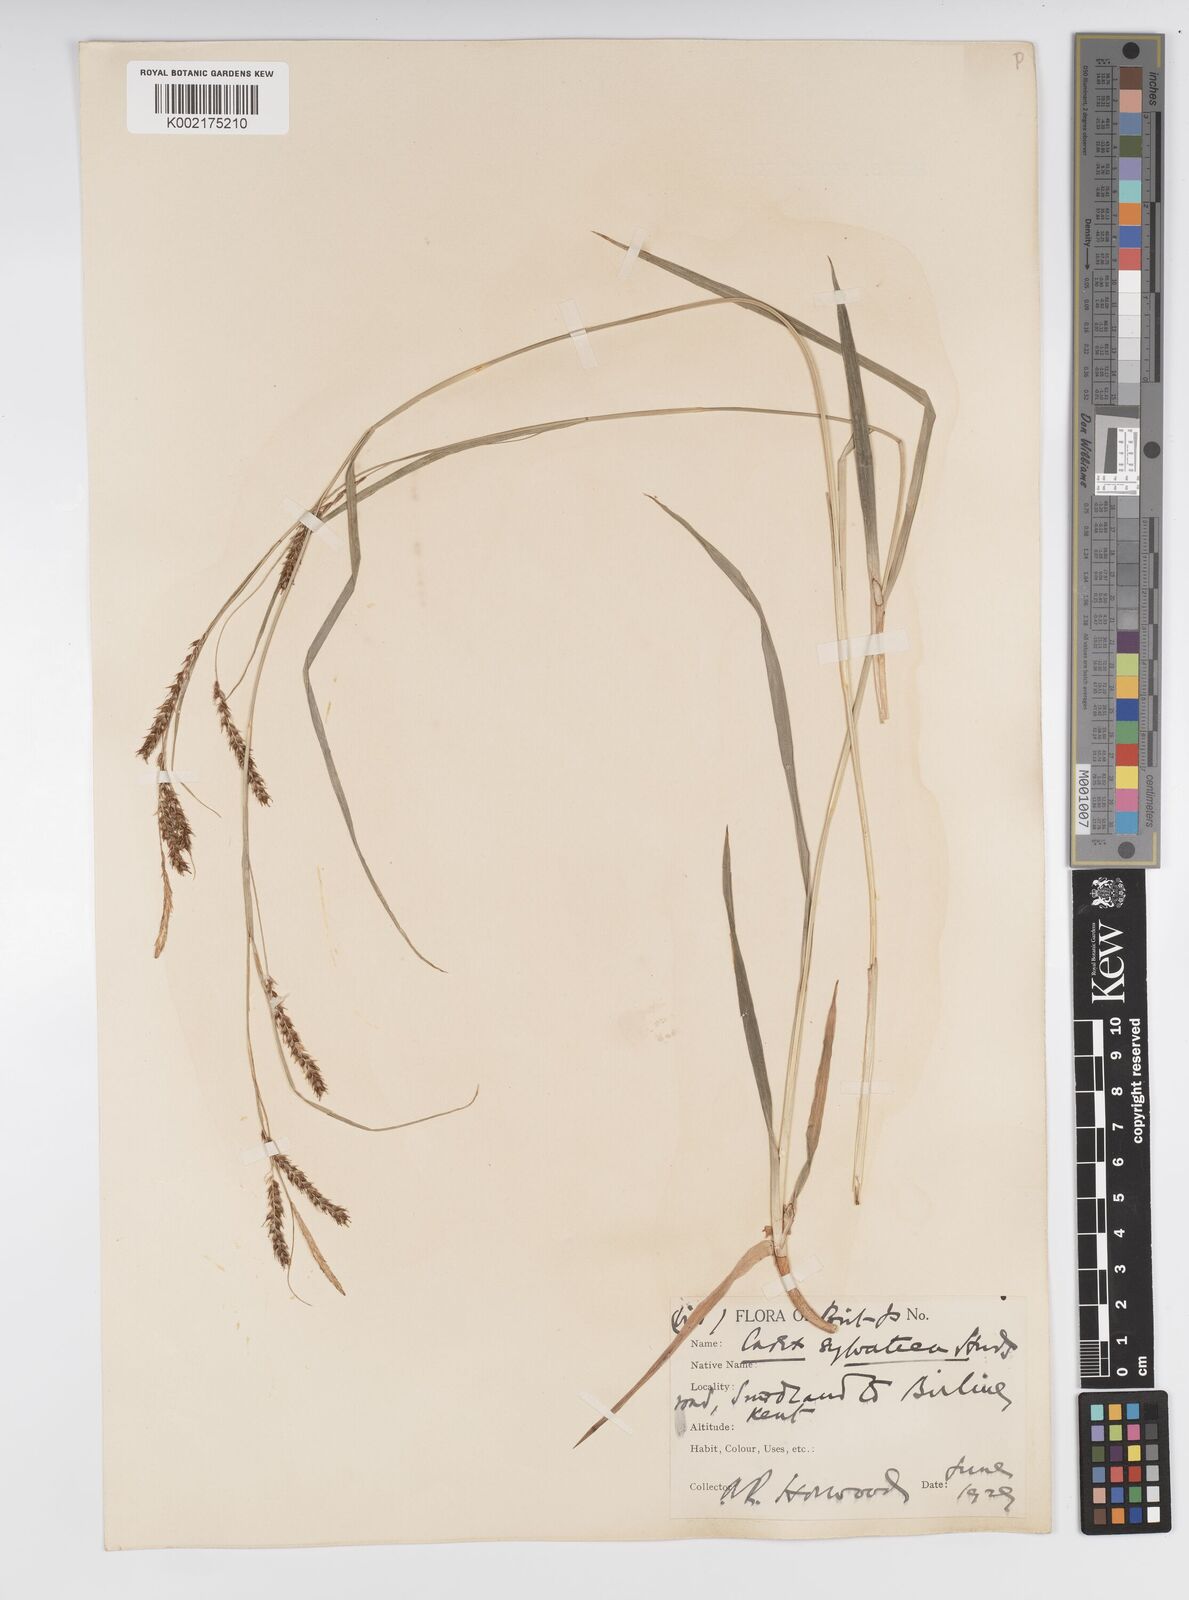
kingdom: Plantae
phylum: Tracheophyta
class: Liliopsida
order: Poales
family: Cyperaceae
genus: Carex
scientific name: Carex sylvatica
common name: Wood-sedge
